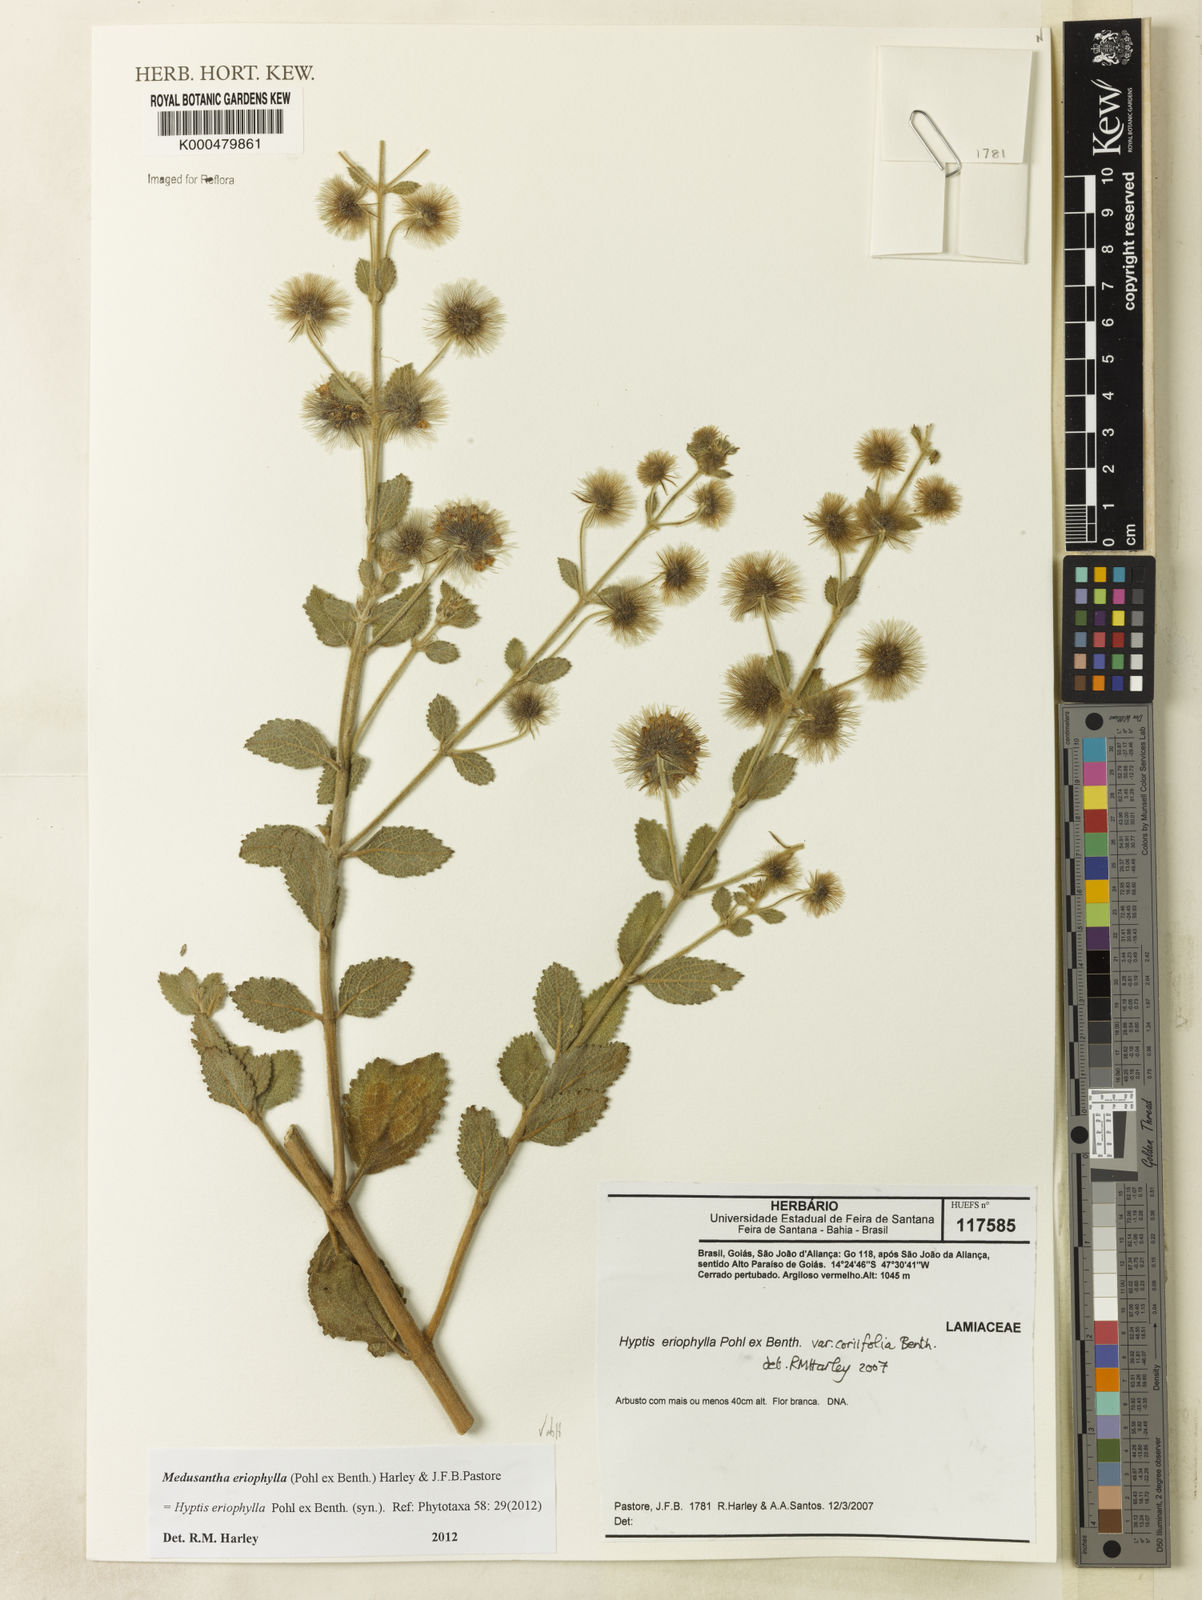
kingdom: Plantae
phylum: Tracheophyta
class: Magnoliopsida
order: Lamiales
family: Lamiaceae
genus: Medusantha
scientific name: Medusantha eriophylla
